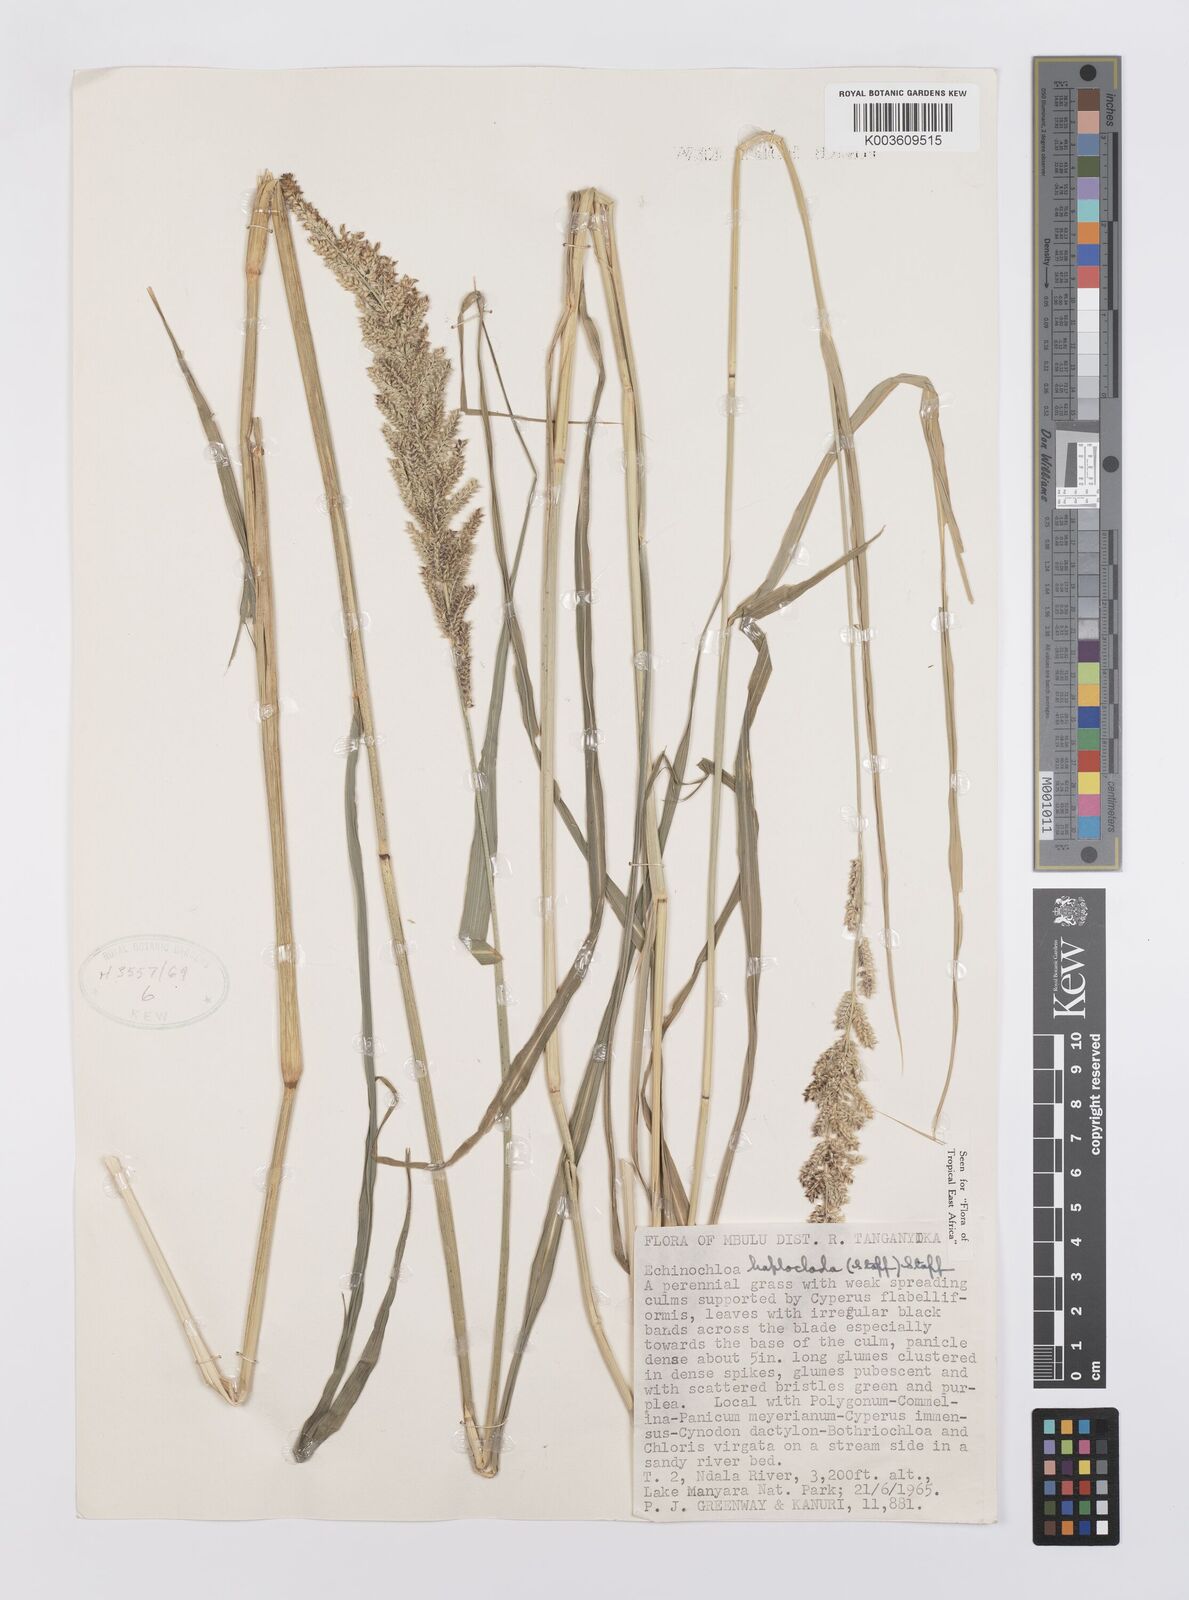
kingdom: Plantae
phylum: Tracheophyta
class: Liliopsida
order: Poales
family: Poaceae
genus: Echinochloa
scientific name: Echinochloa haploclada
